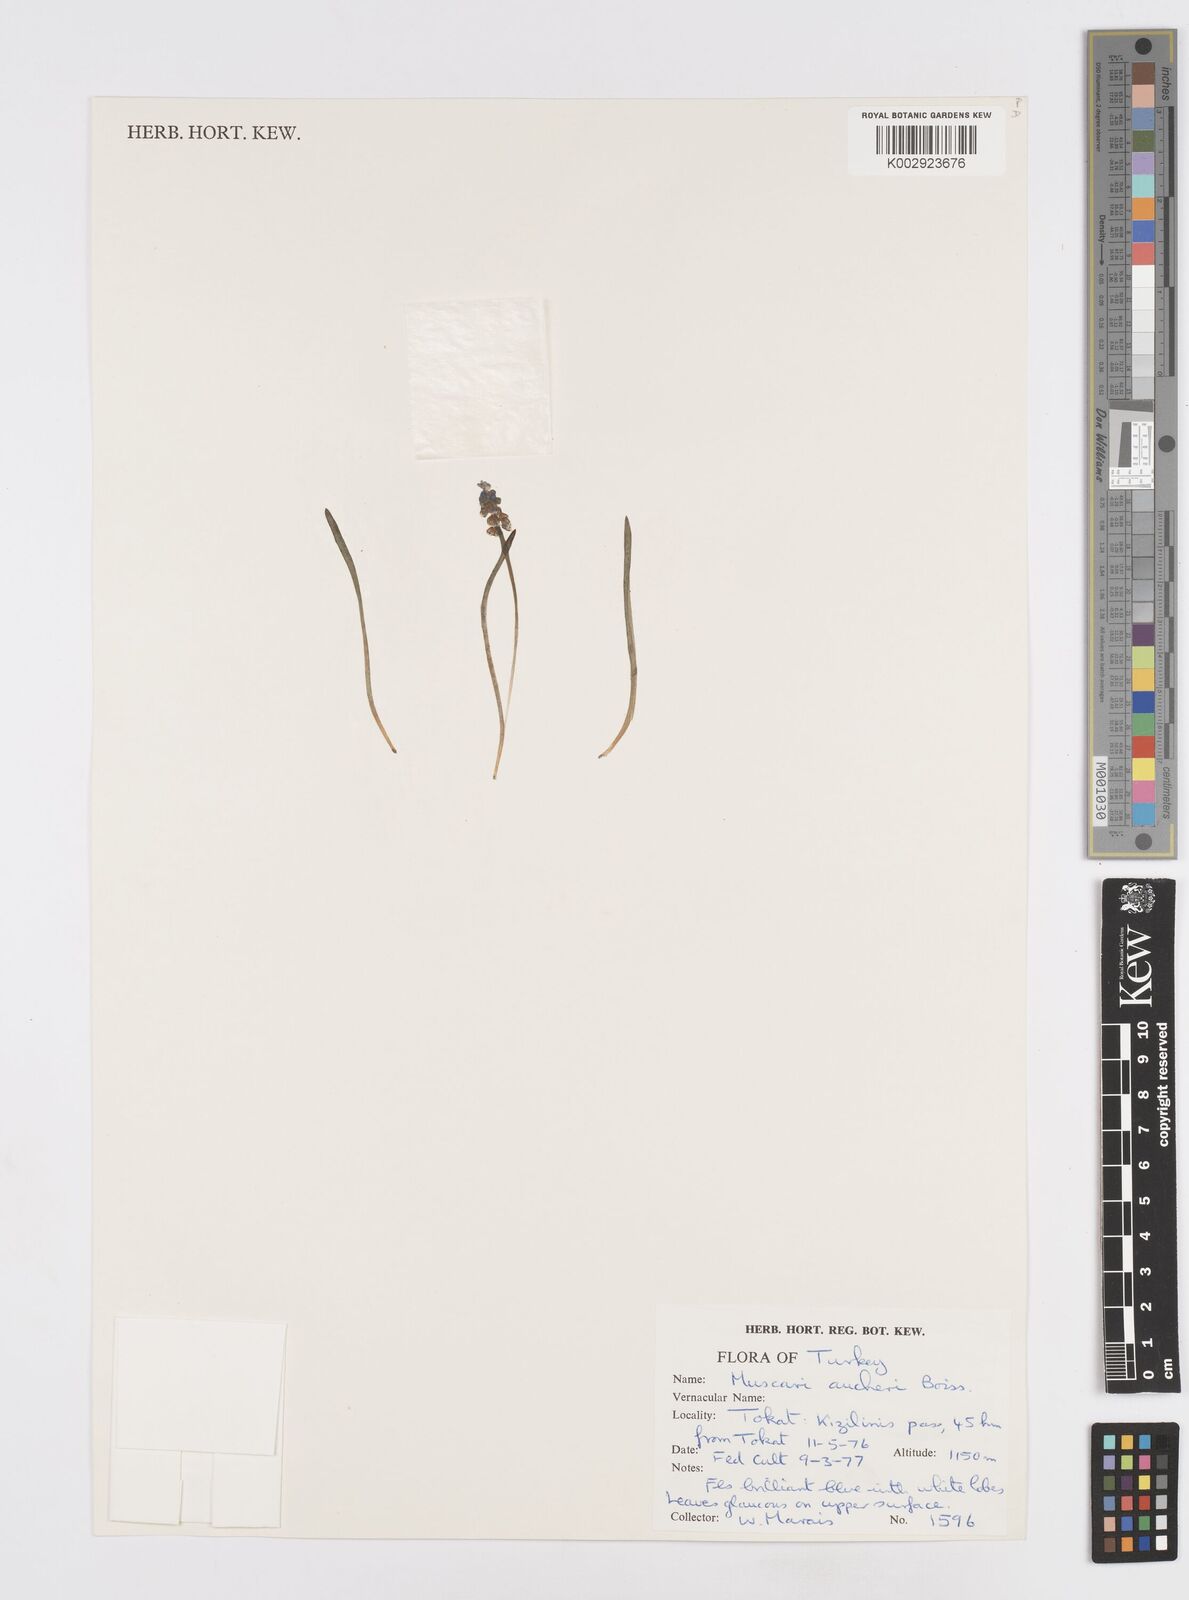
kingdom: Plantae
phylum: Tracheophyta
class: Liliopsida
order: Asparagales
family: Asparagaceae
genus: Muscari
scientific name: Muscari aucheri
